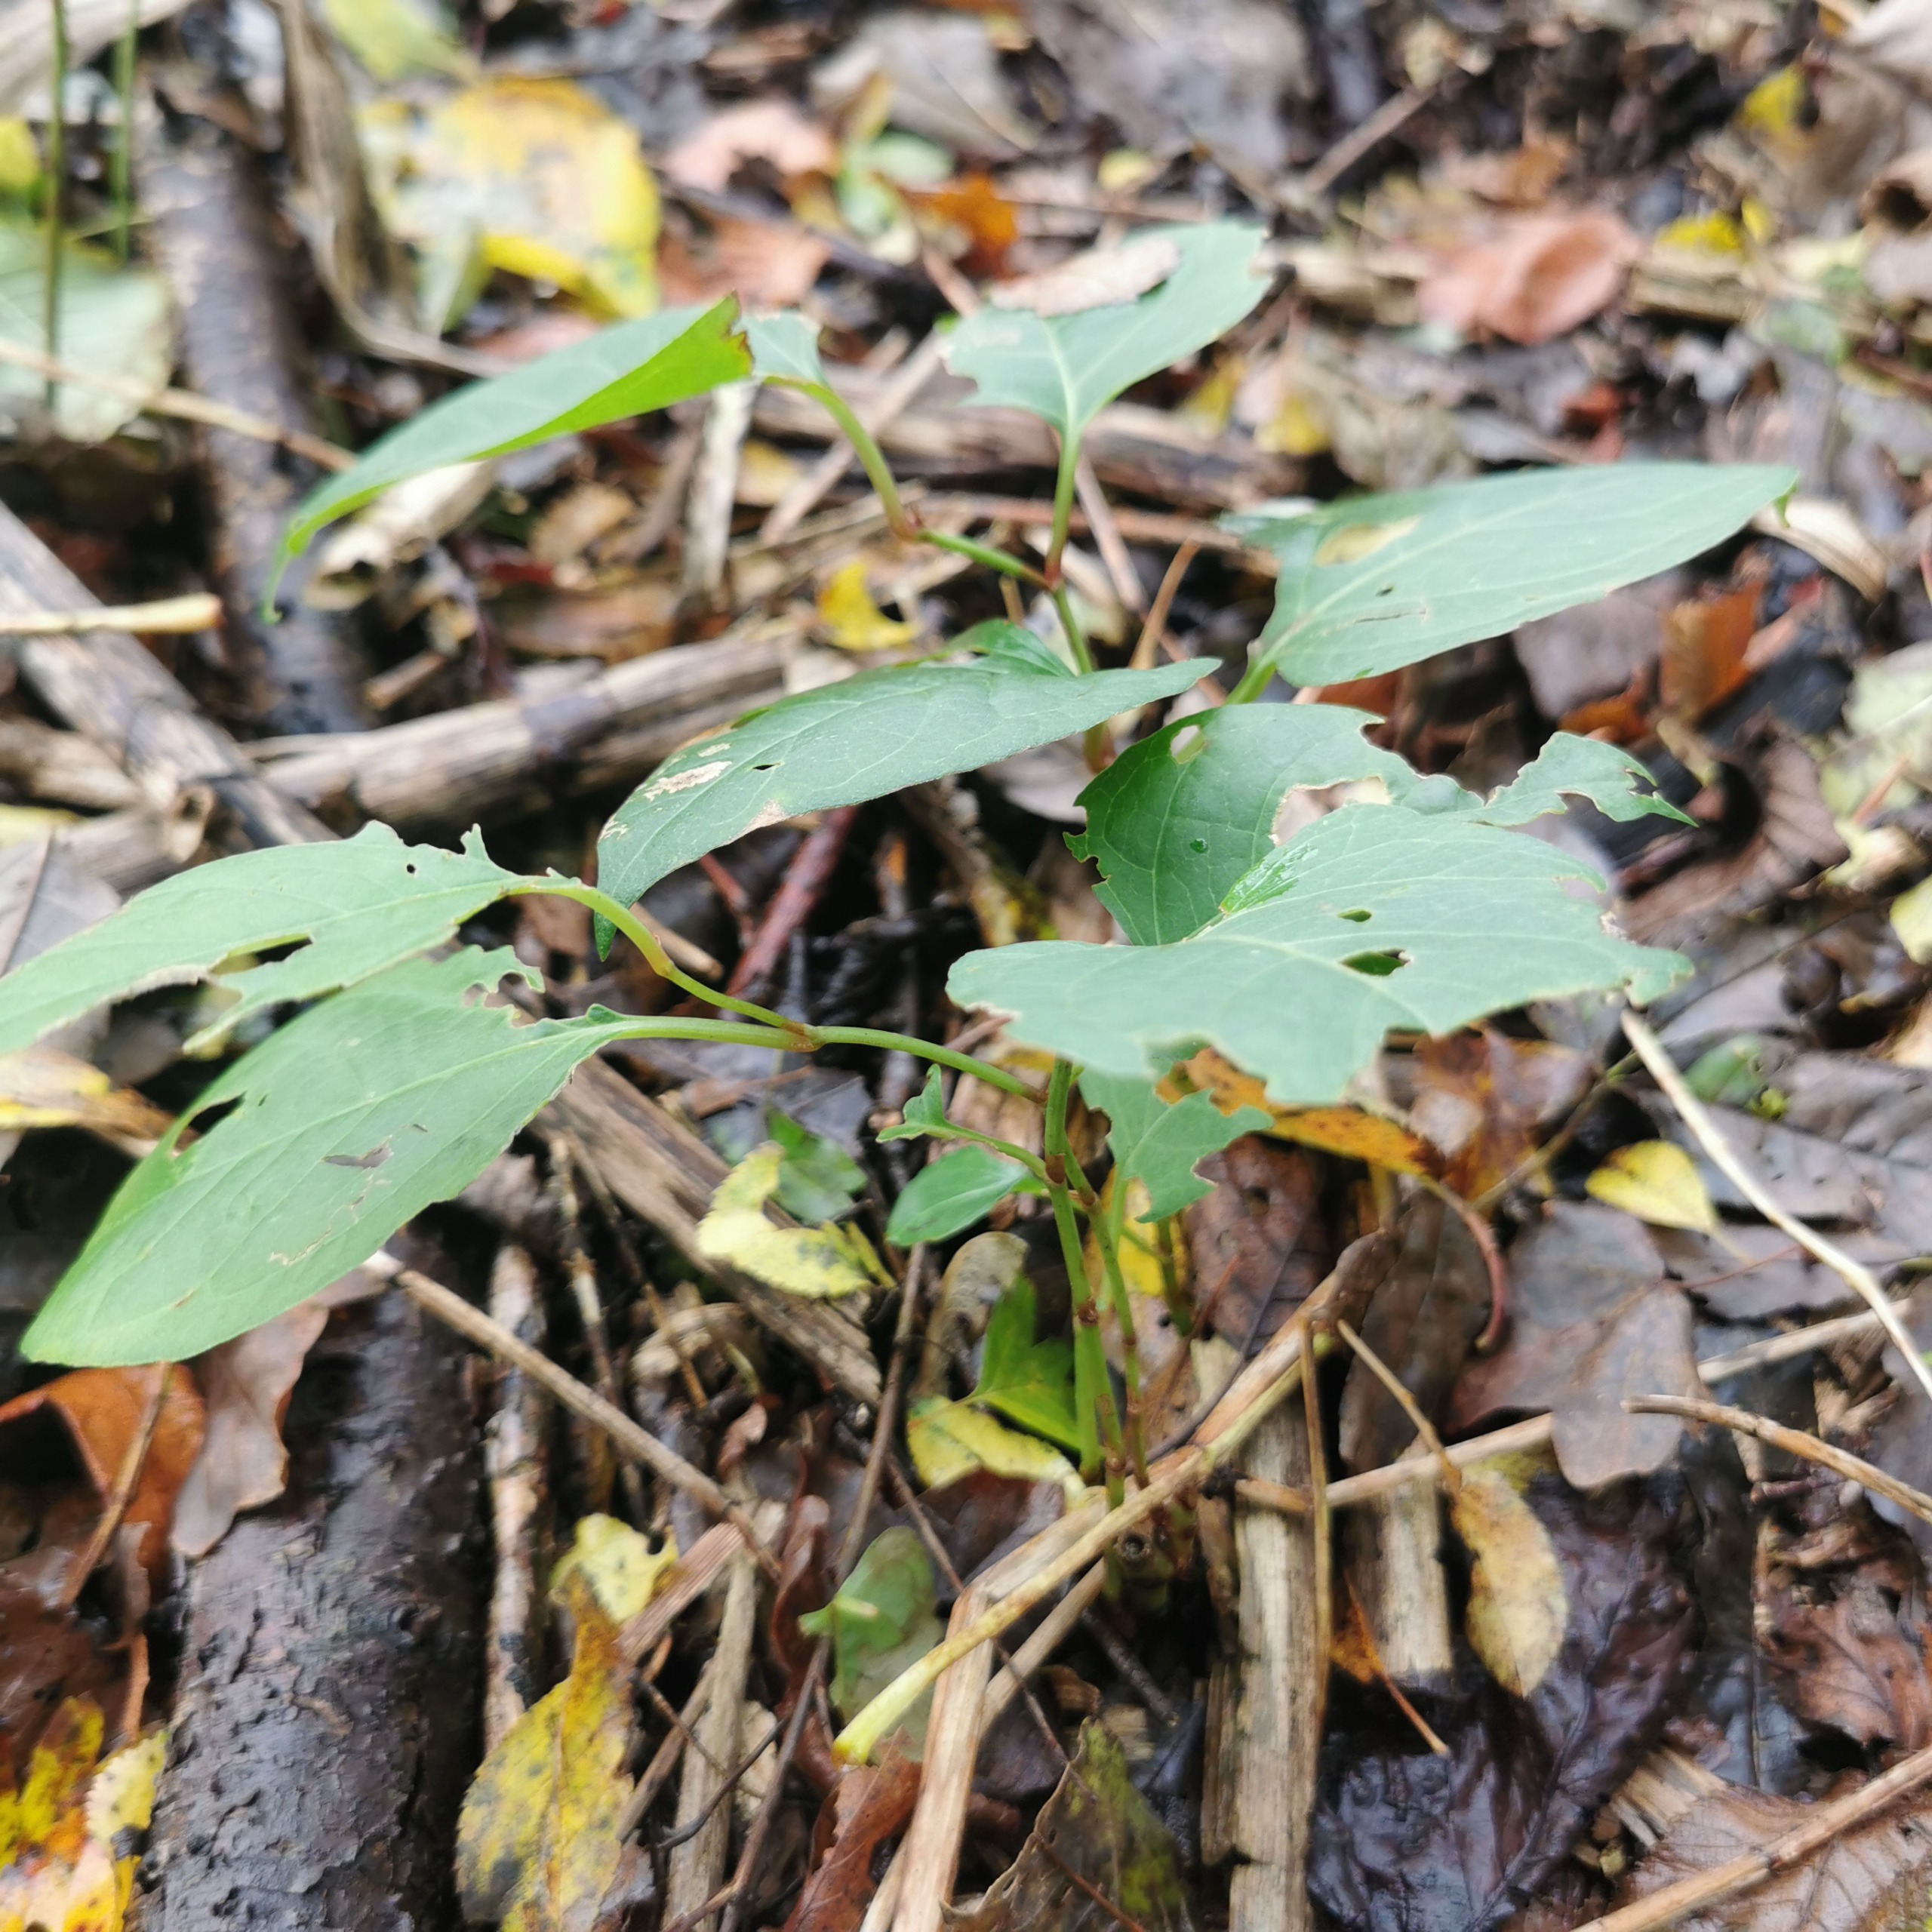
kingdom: Plantae
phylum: Tracheophyta
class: Magnoliopsida
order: Caryophyllales
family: Polygonaceae
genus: Reynoutria
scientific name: Reynoutria japonica
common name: Japan-pileurt
